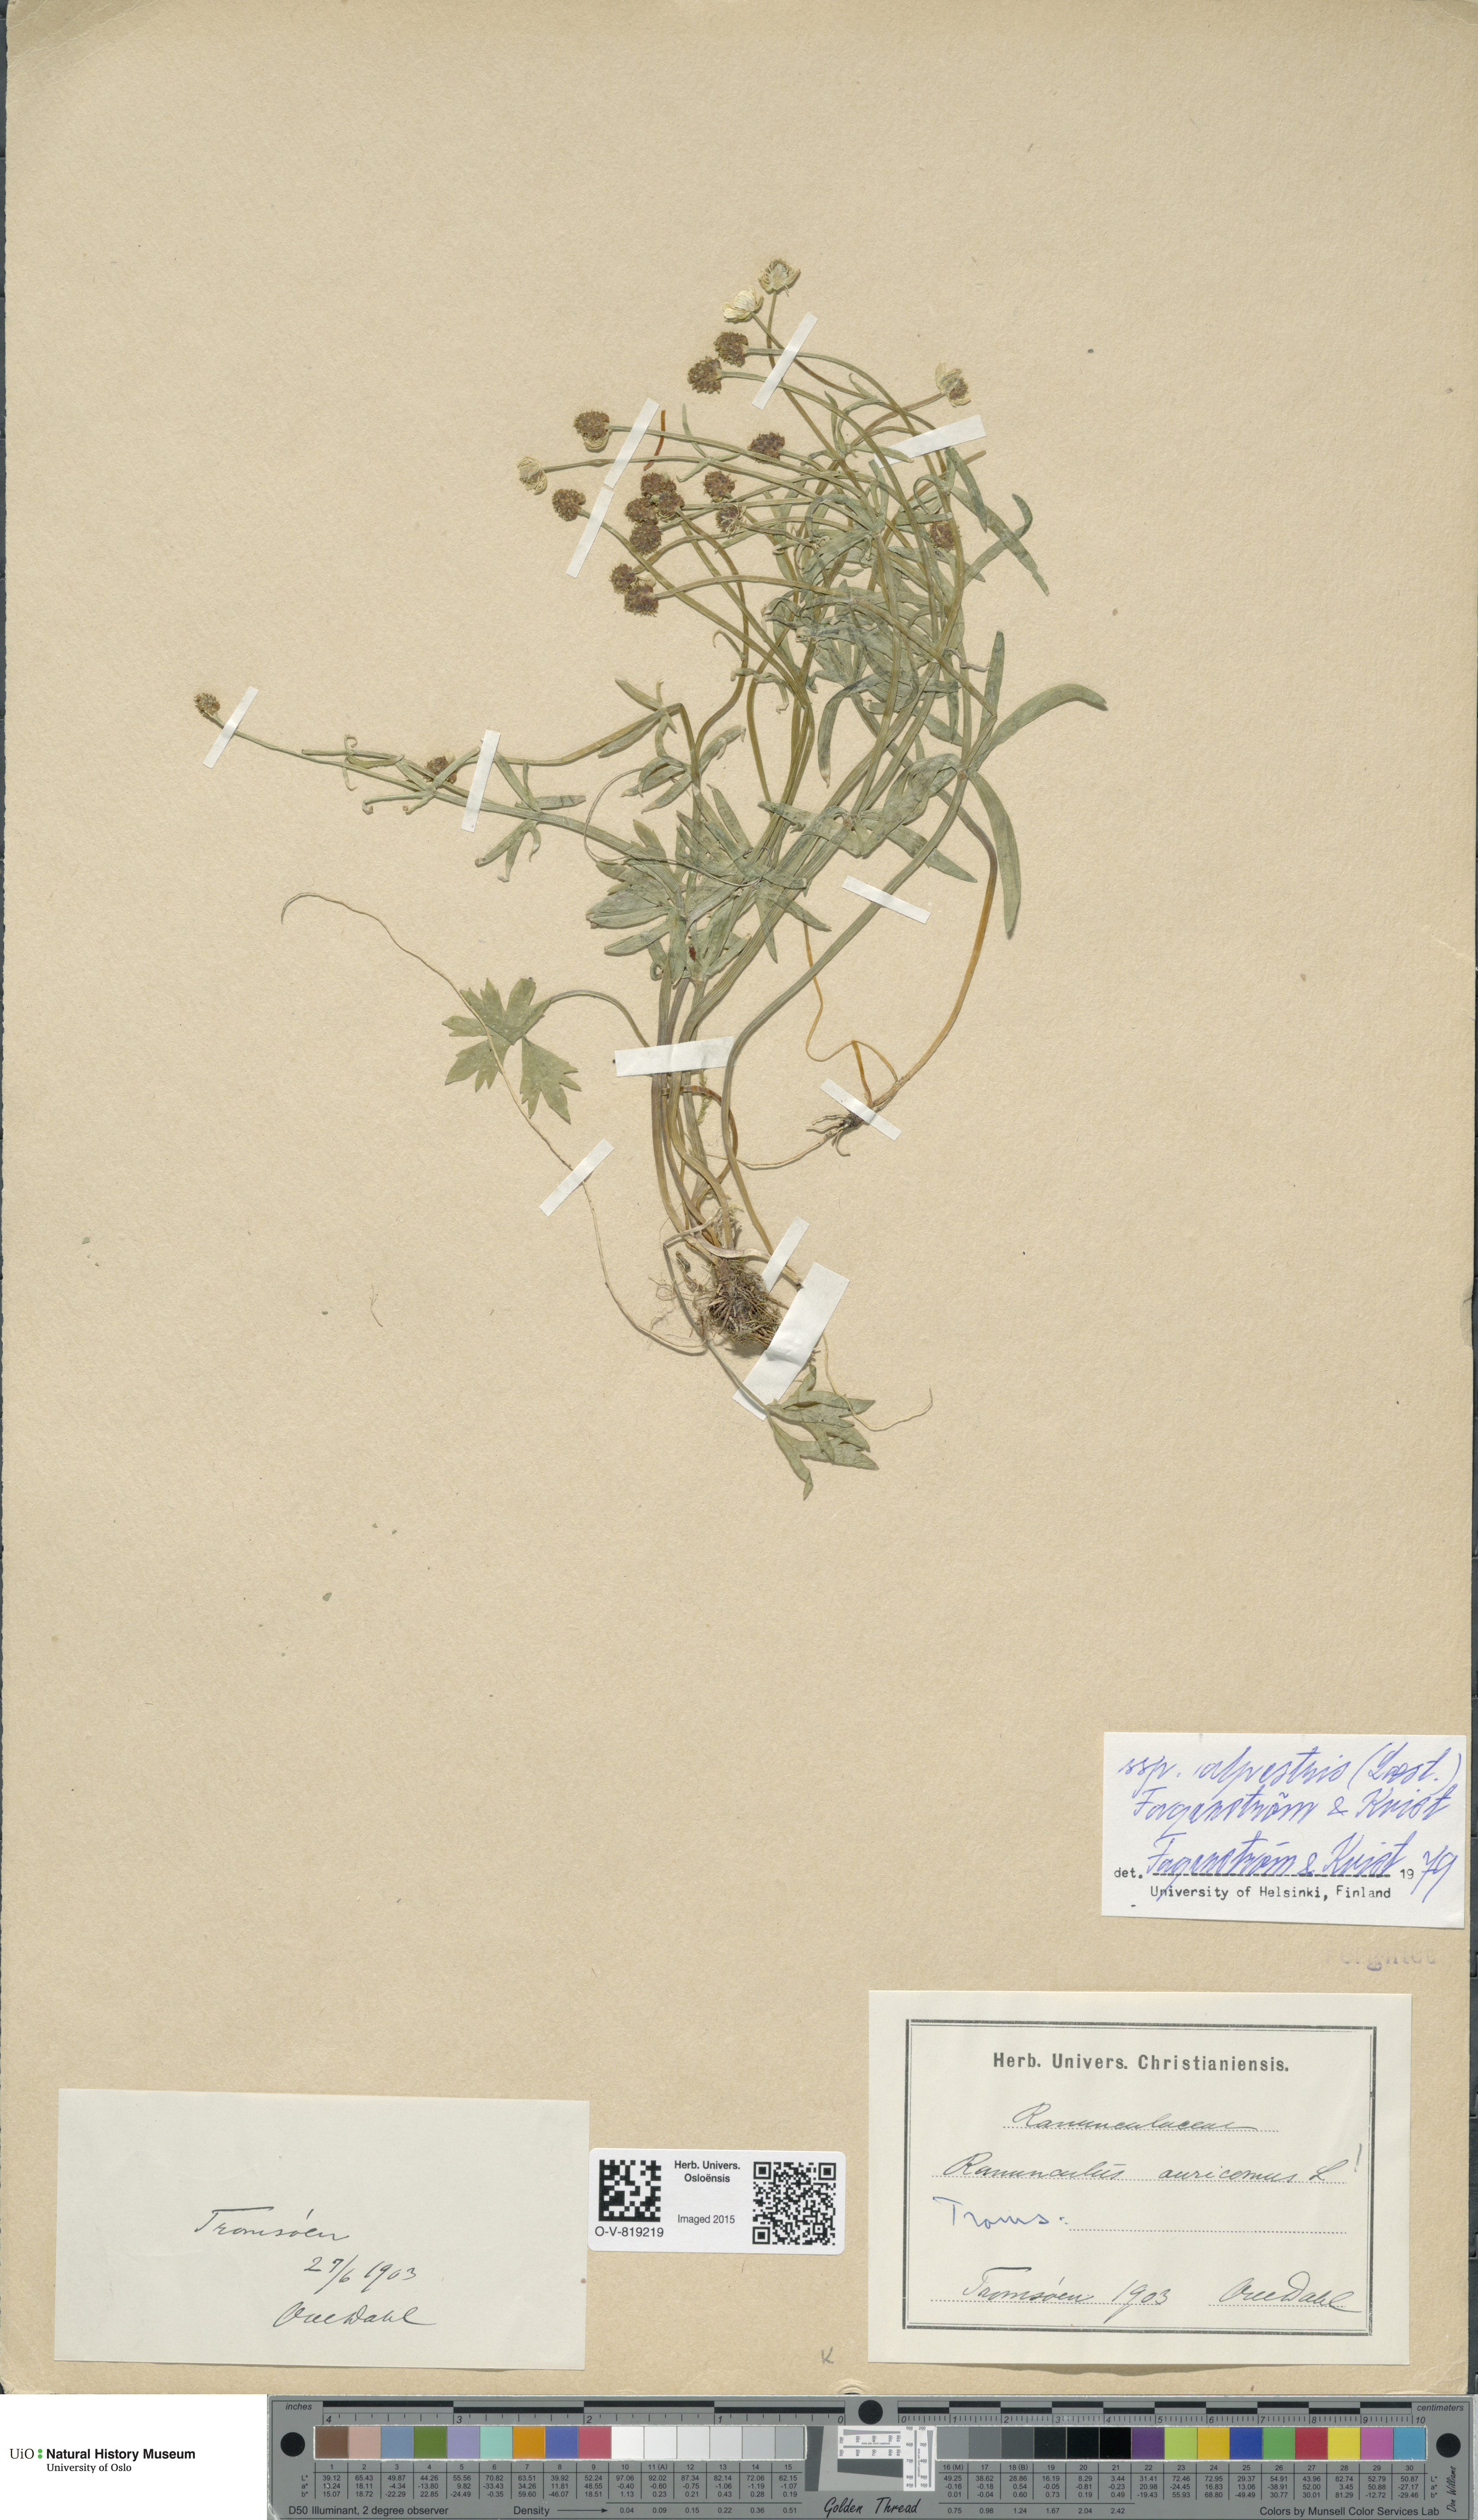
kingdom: Plantae
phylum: Tracheophyta
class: Magnoliopsida
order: Ranunculales
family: Ranunculaceae
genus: Ranunculus
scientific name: Ranunculus laestadii
